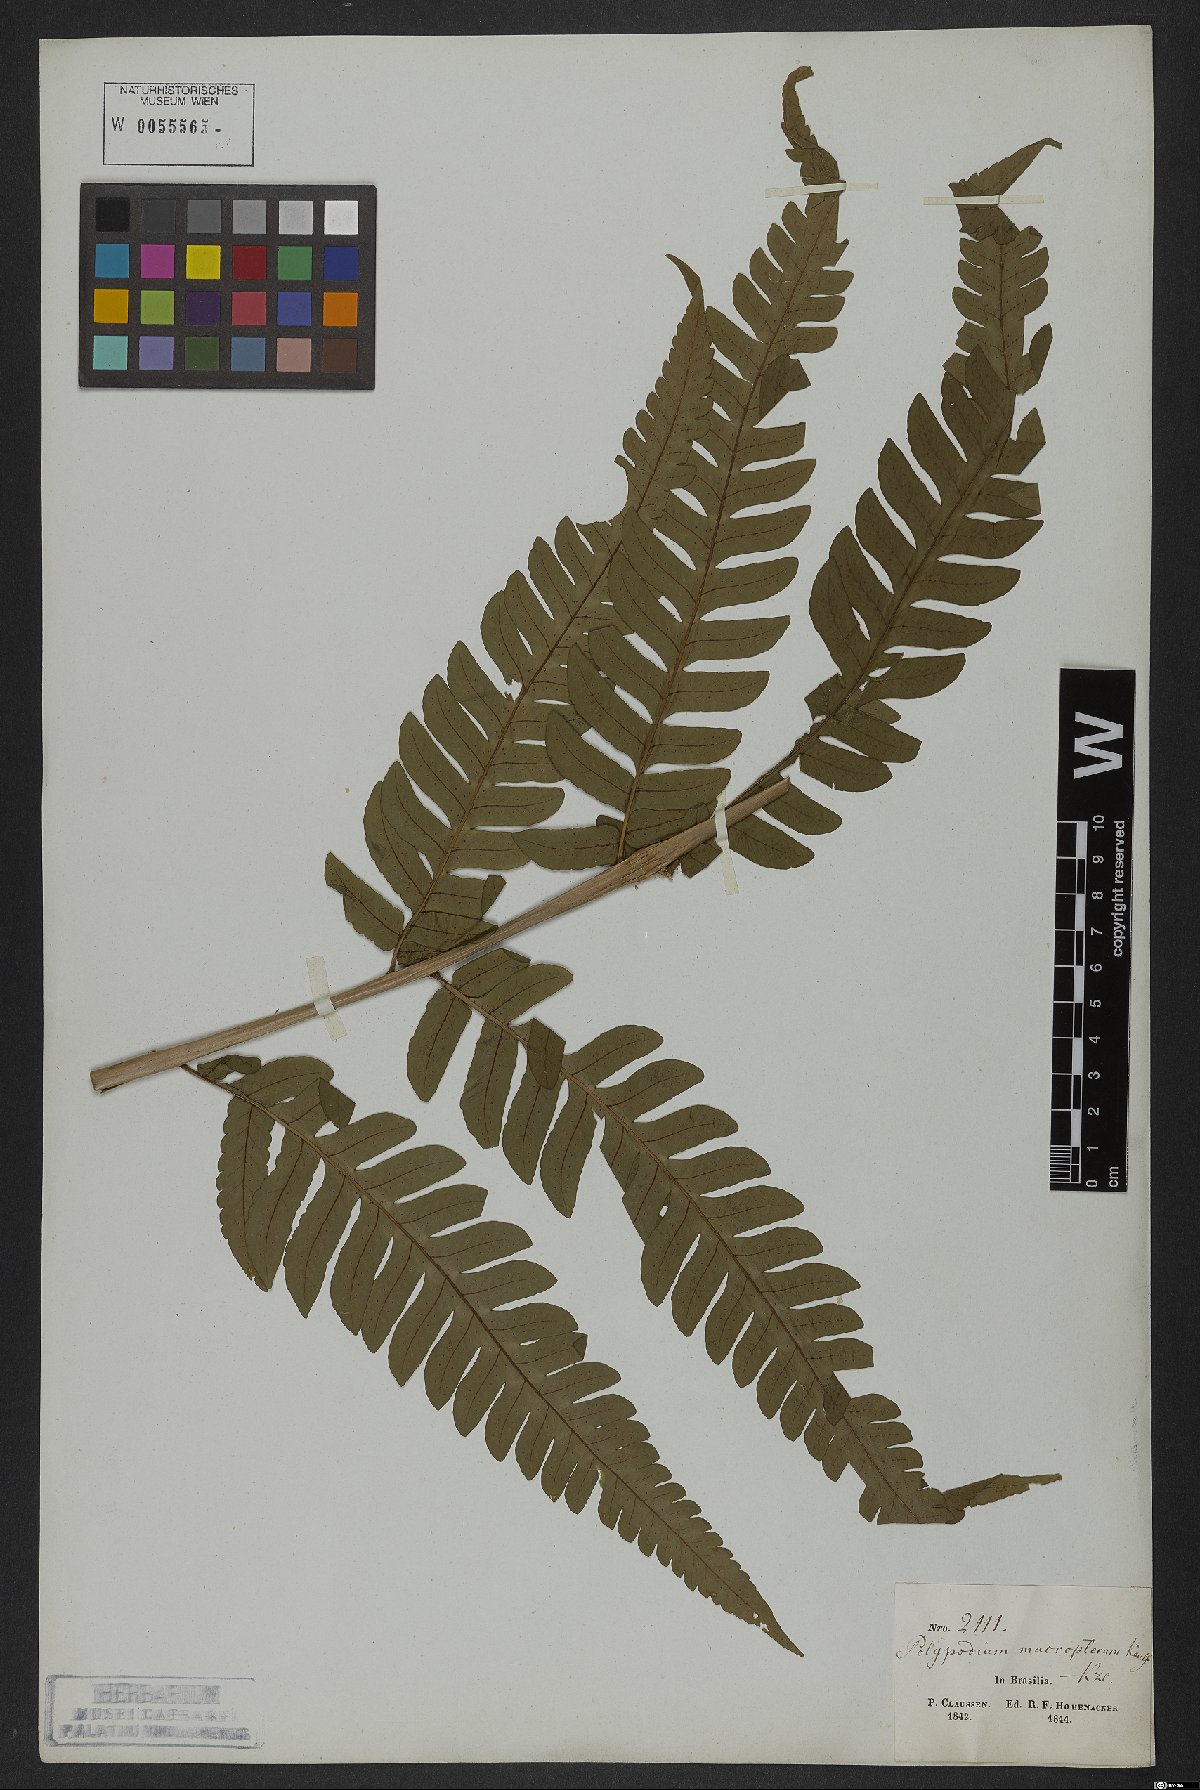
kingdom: Plantae
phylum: Tracheophyta
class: Polypodiopsida
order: Polypodiales
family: Dryopteridaceae
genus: Megalastrum
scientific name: Megalastrum grande
